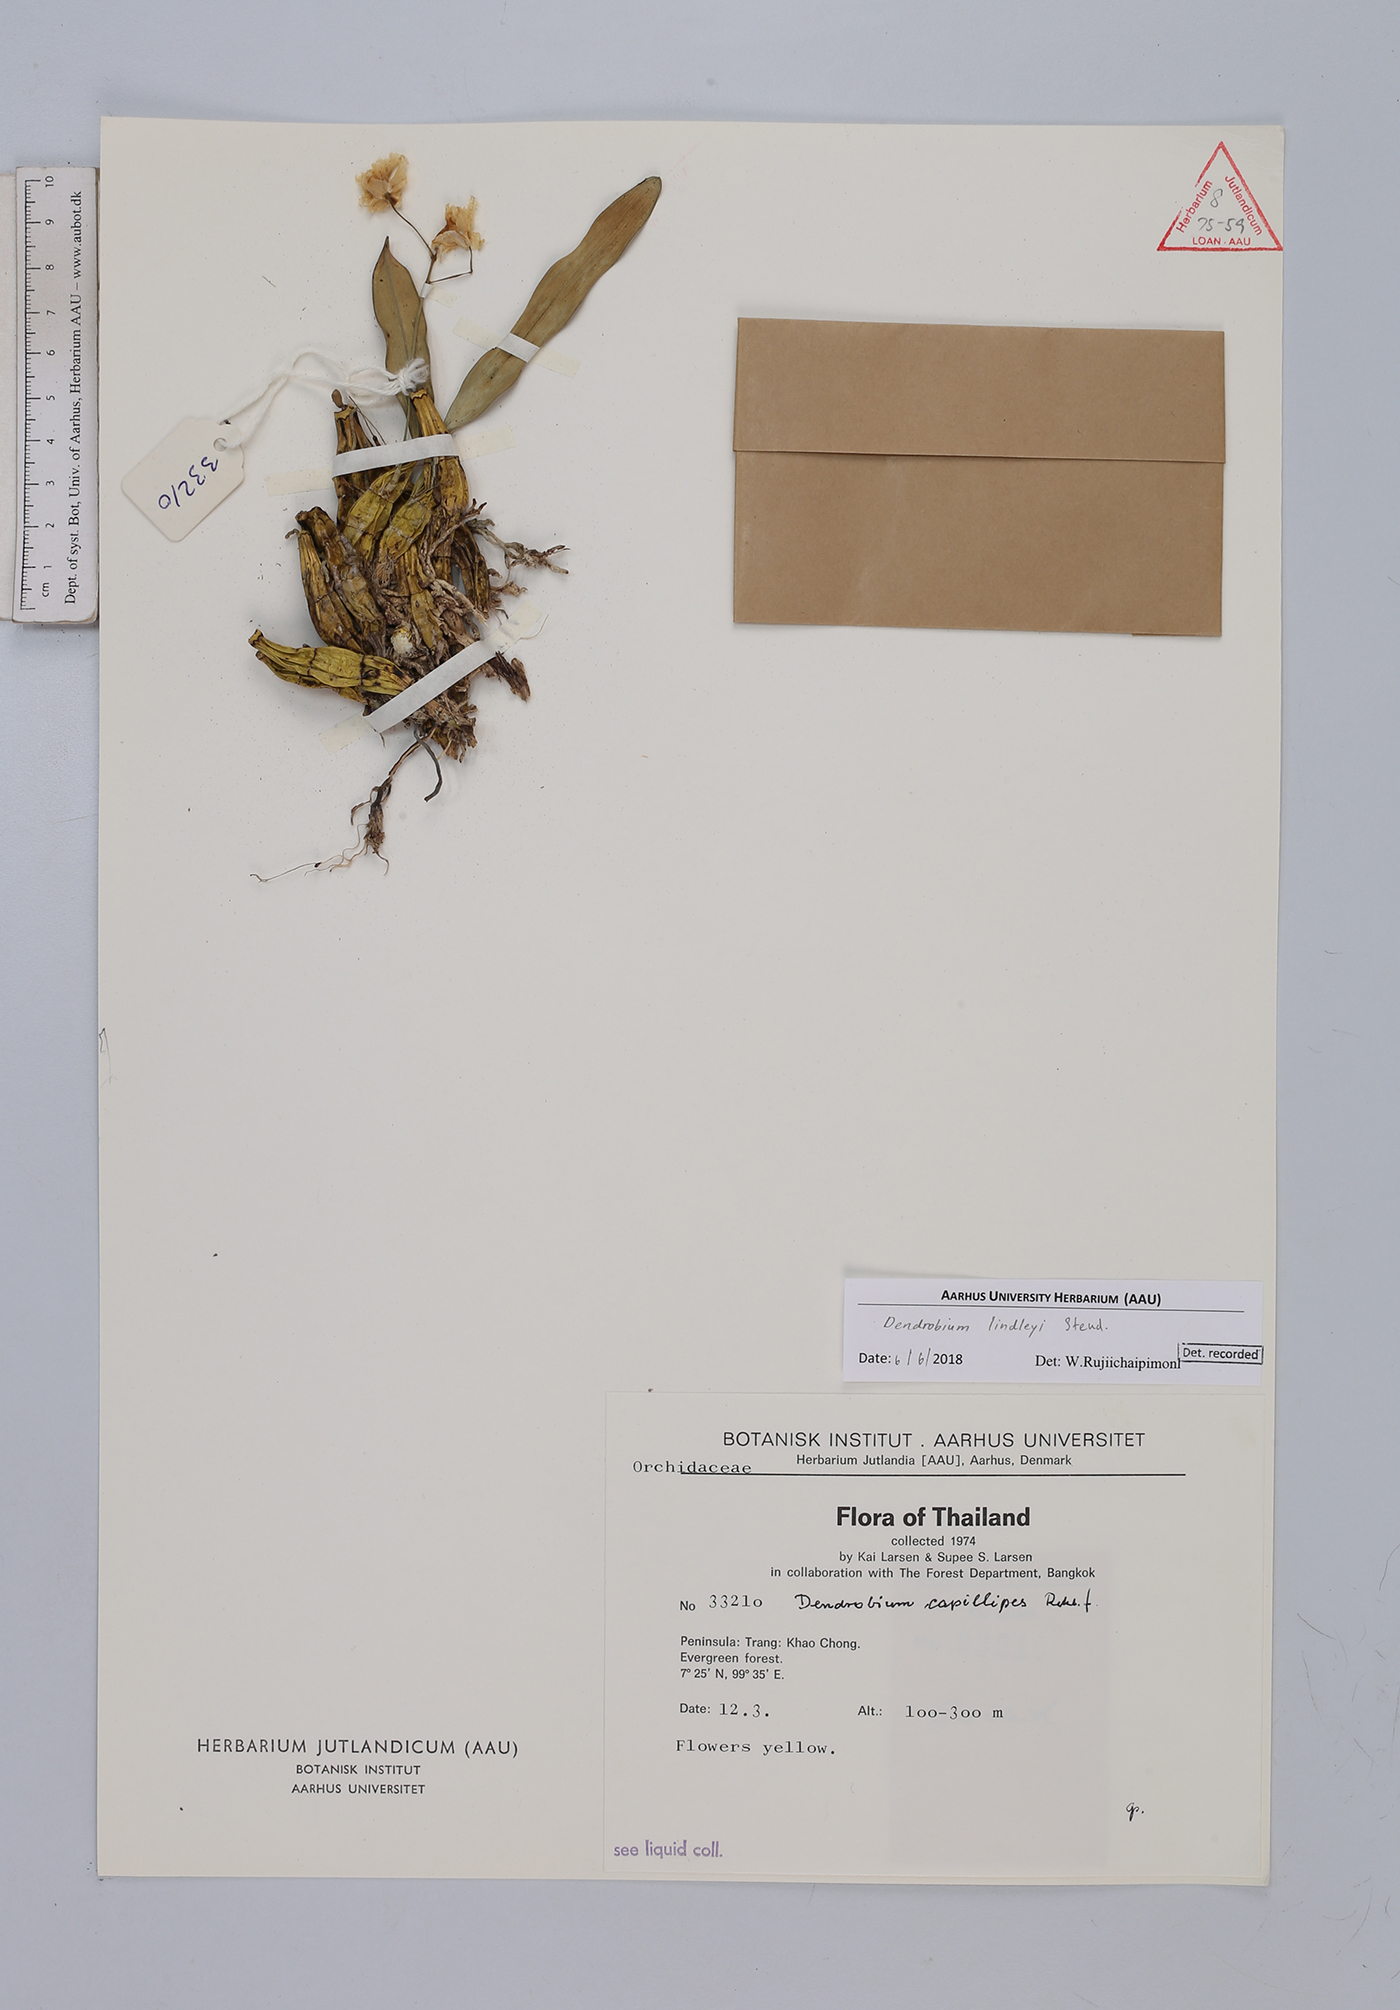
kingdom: Plantae
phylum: Tracheophyta
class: Liliopsida
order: Asparagales
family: Orchidaceae
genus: Dendrobium
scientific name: Dendrobium lindleyi
